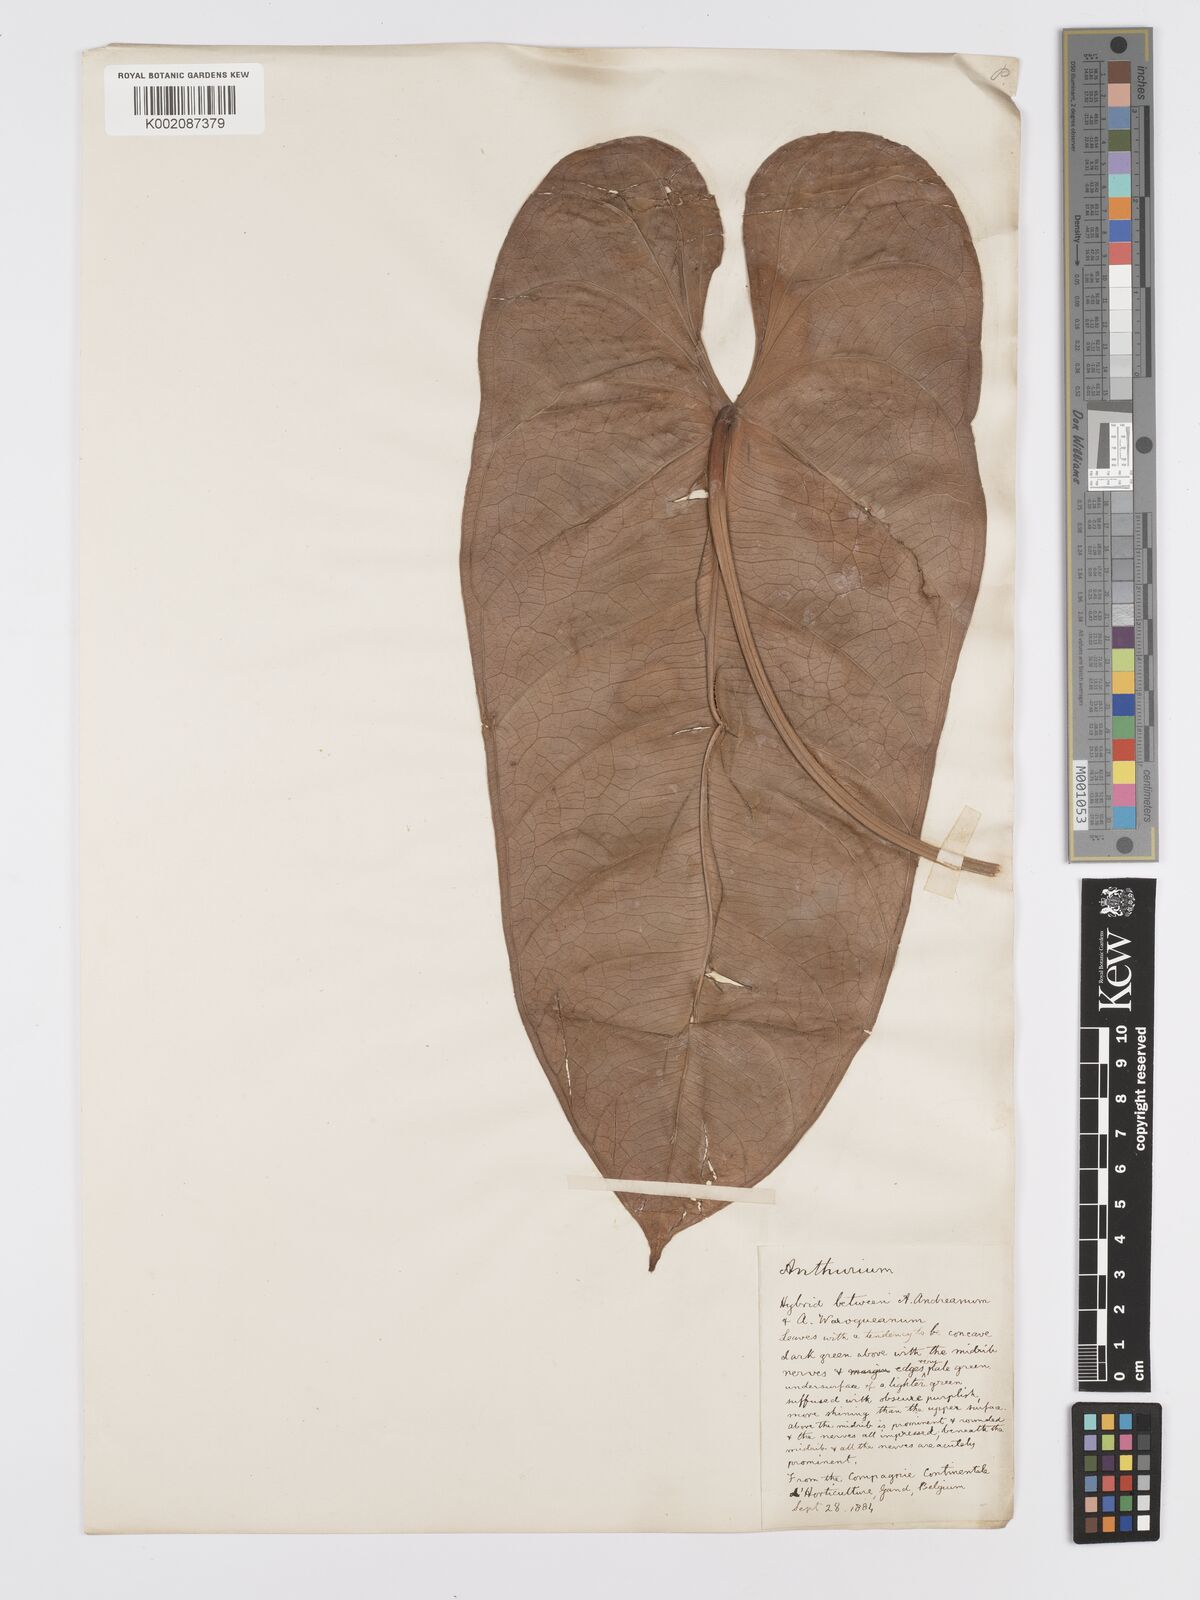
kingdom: Plantae
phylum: Tracheophyta
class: Liliopsida
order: Alismatales
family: Araceae
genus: Anthurium
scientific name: Anthurium pallidinervium
